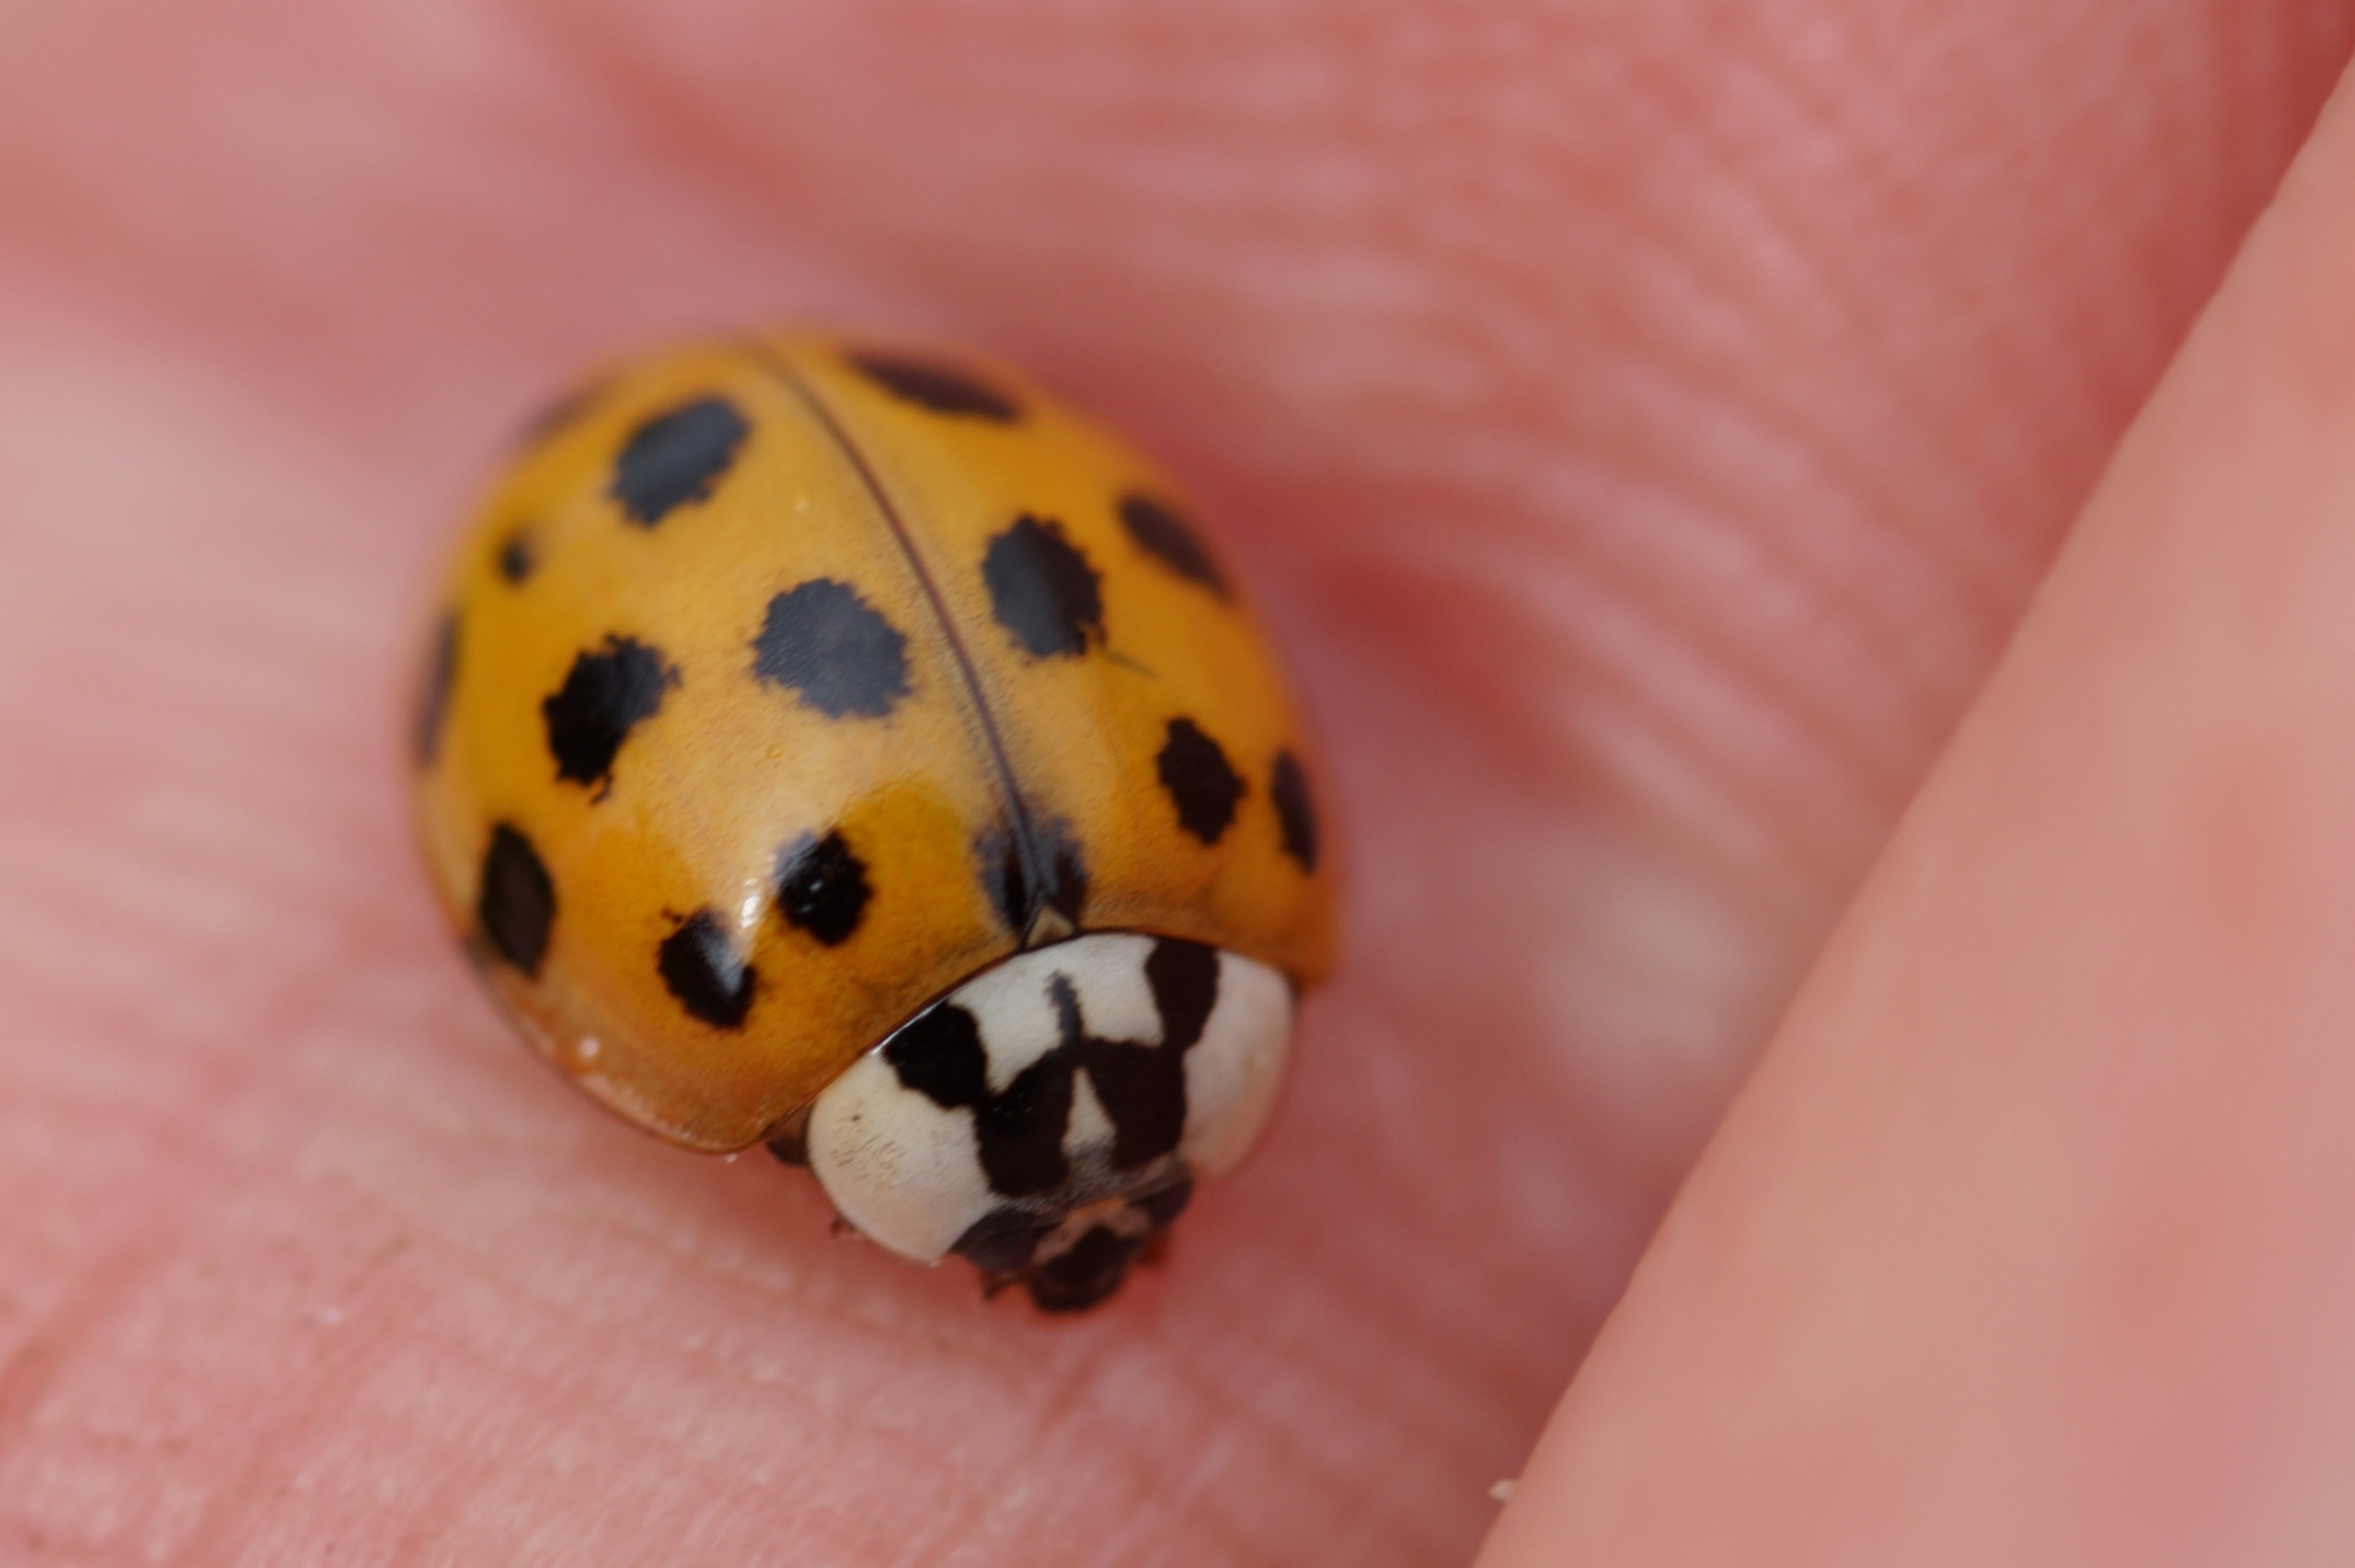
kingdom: Animalia
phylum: Arthropoda
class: Insecta
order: Coleoptera
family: Coccinellidae
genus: Harmonia
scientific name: Harmonia axyridis
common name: Harlekinmariehøne
